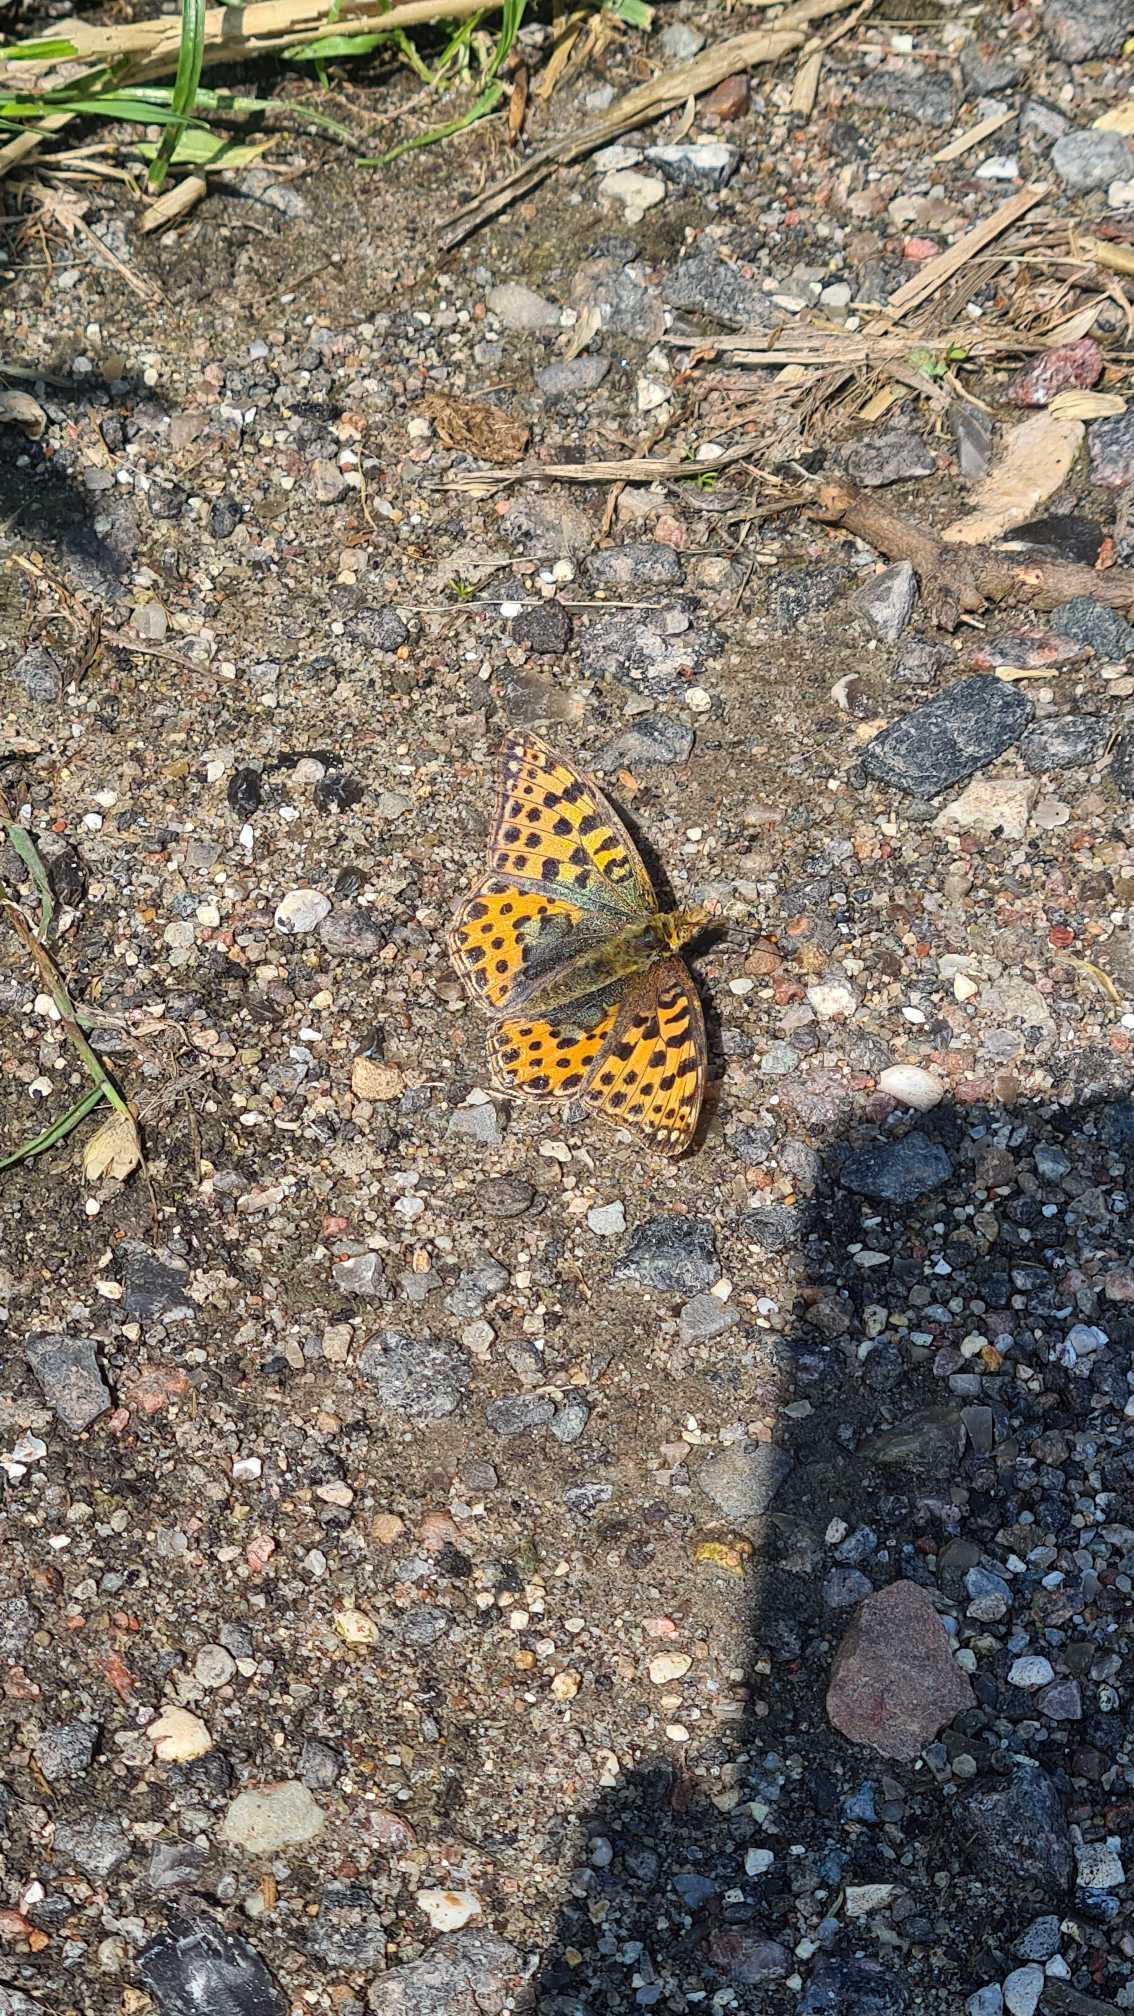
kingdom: Animalia
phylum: Arthropoda
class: Insecta
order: Lepidoptera
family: Nymphalidae
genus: Issoria
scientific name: Issoria lathonia
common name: Storplettet perlemorsommerfugl
